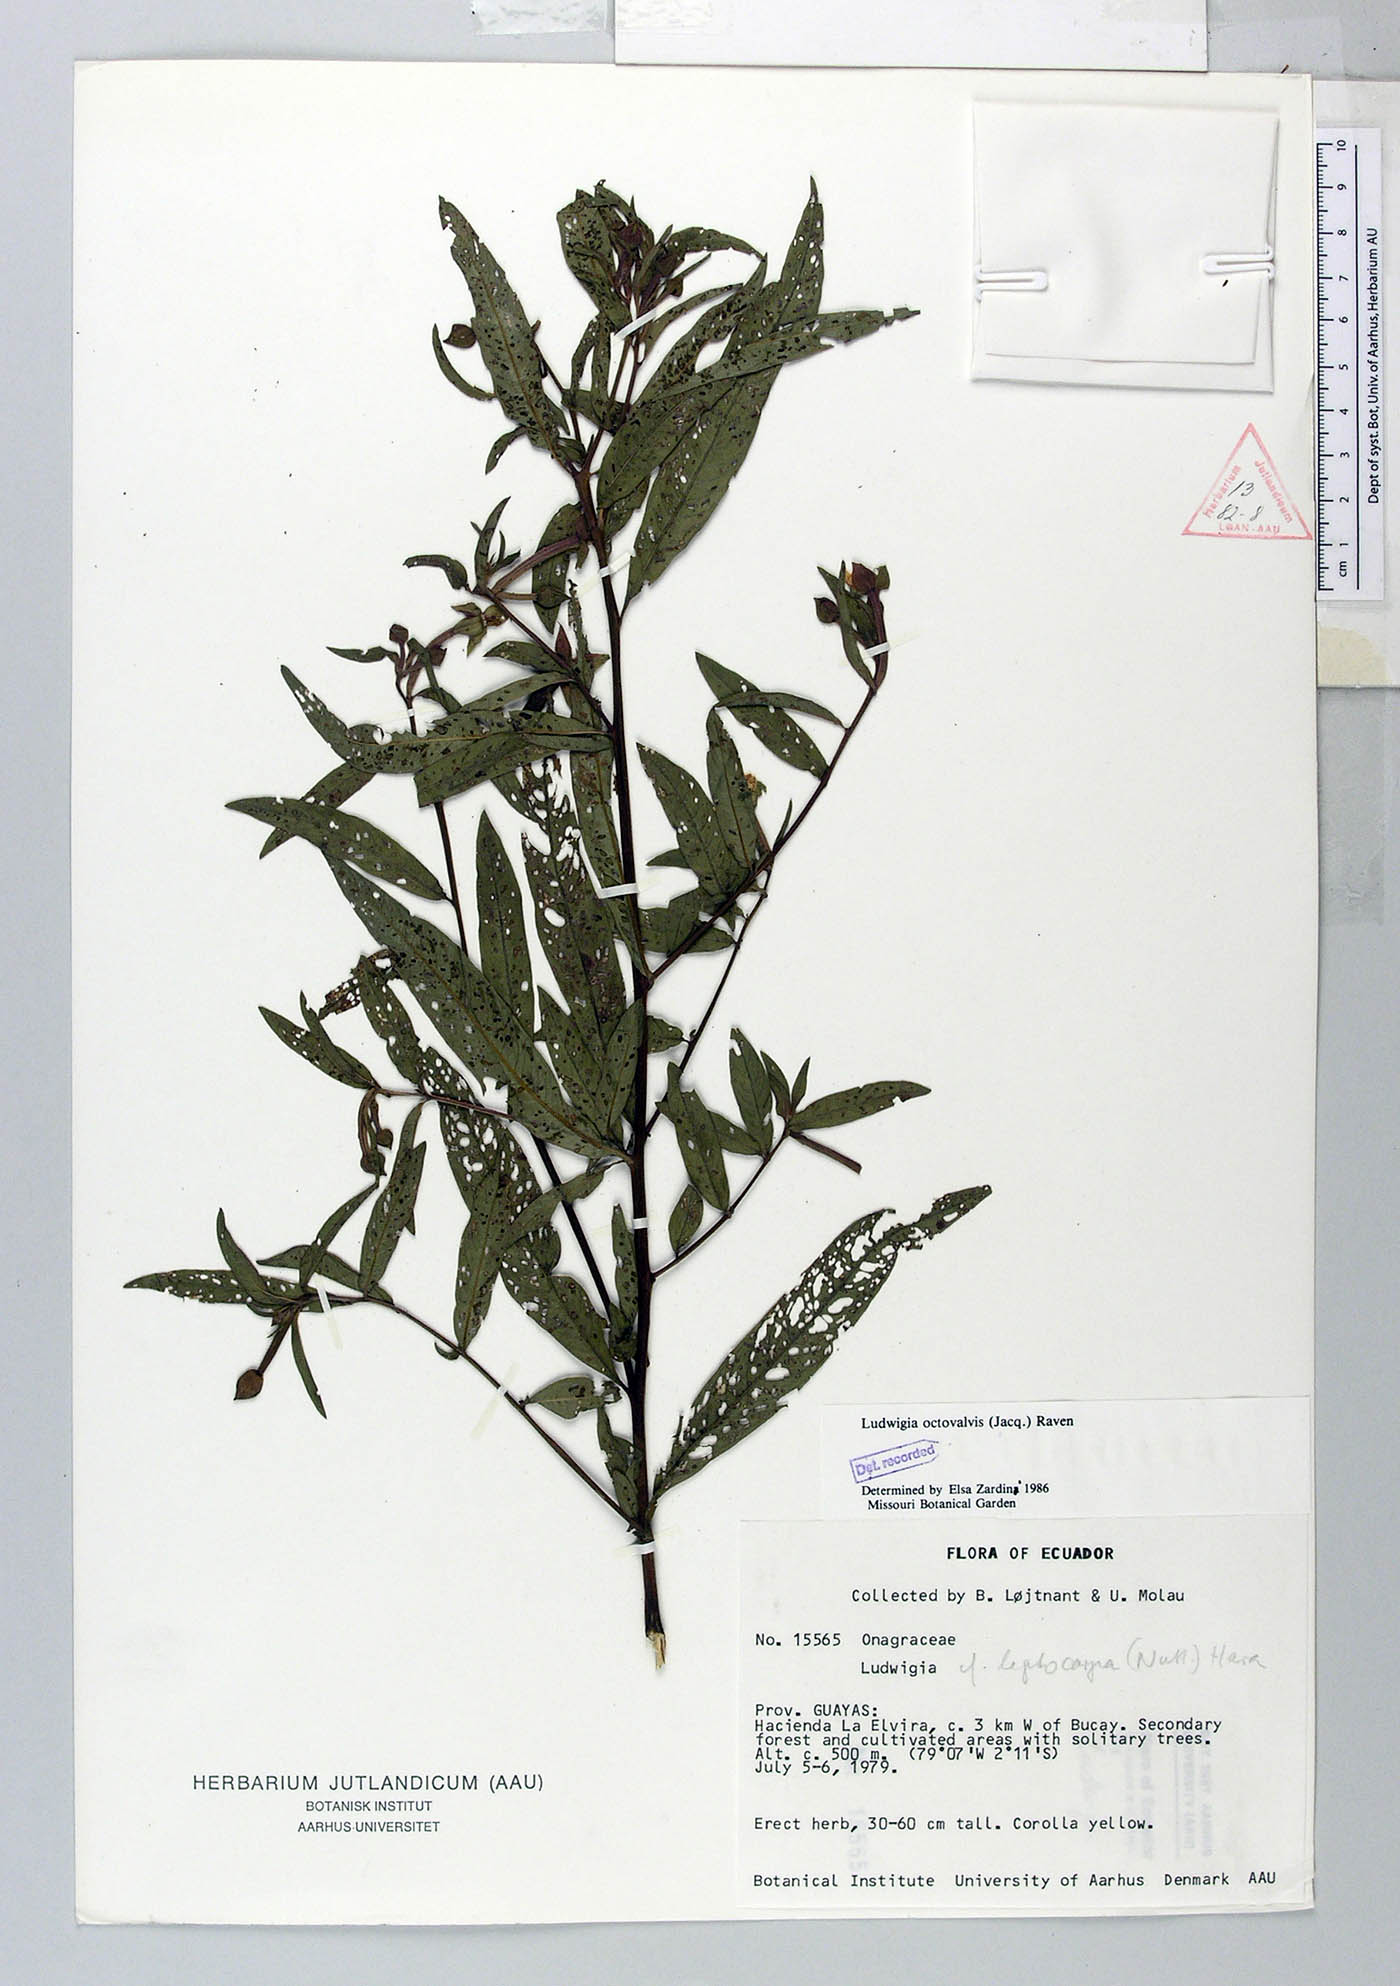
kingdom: Plantae
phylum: Tracheophyta
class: Magnoliopsida
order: Myrtales
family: Onagraceae
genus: Ludwigia
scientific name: Ludwigia octovalvis
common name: Water-primrose
